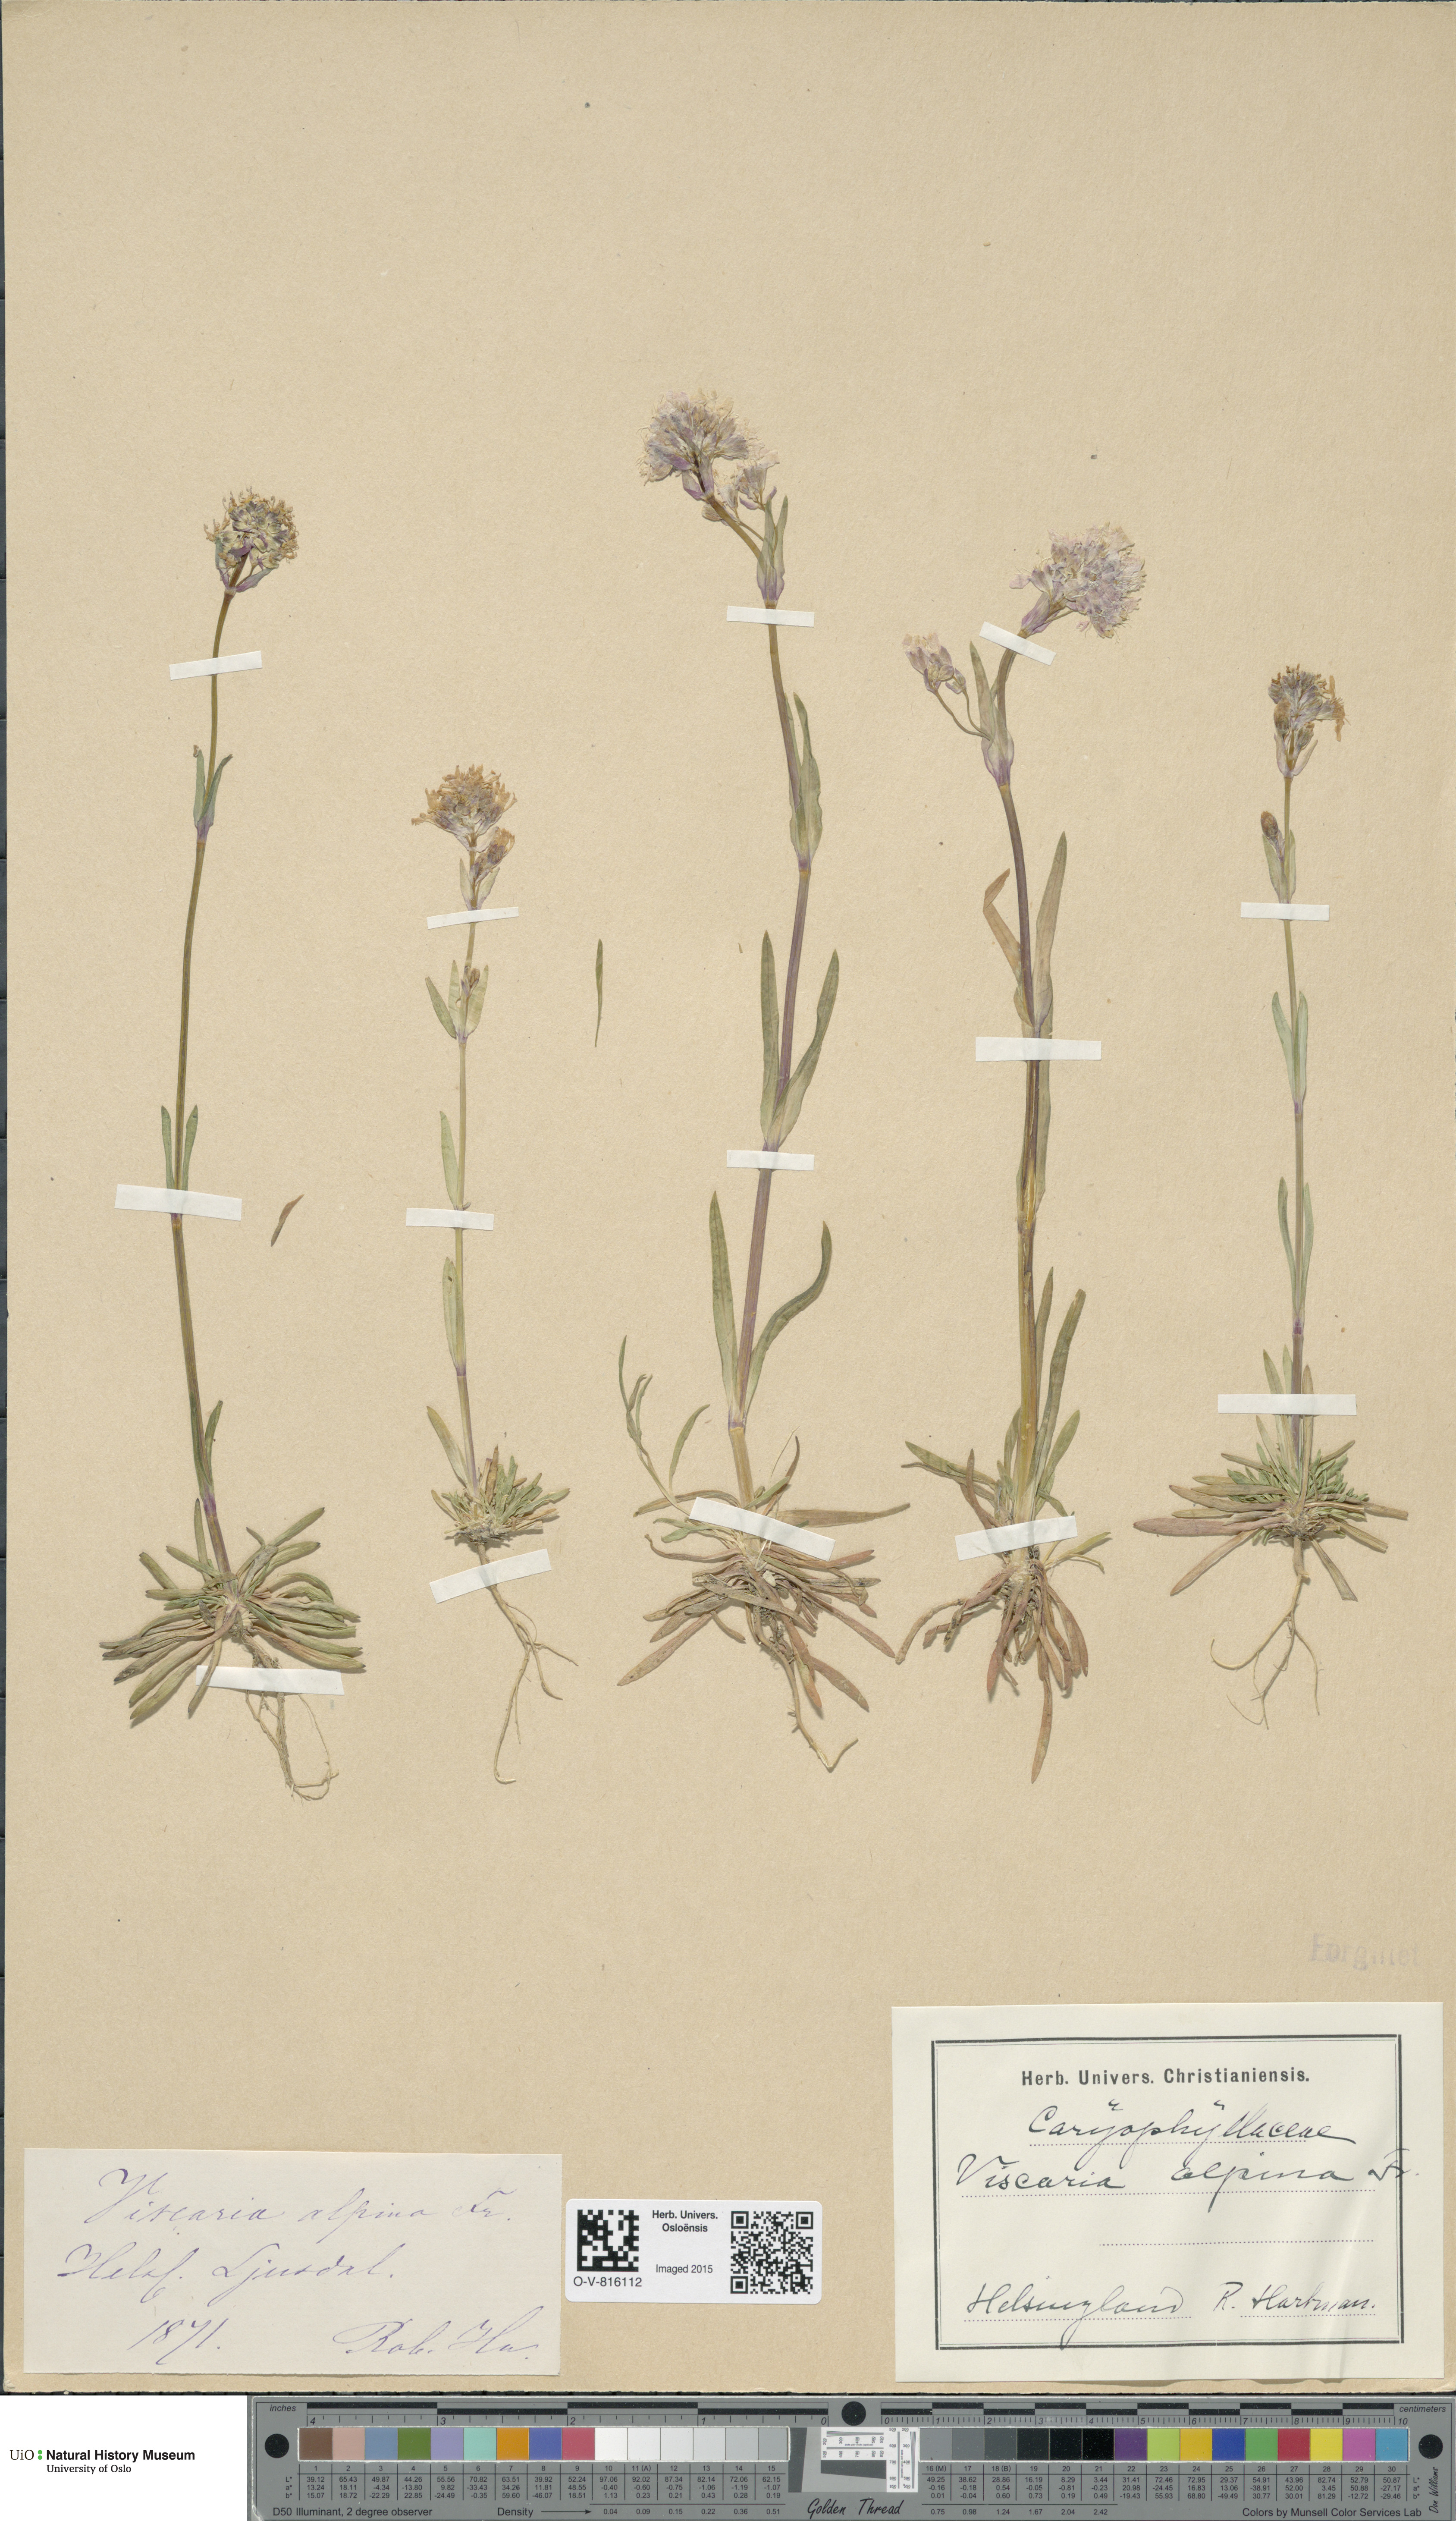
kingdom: Plantae
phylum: Tracheophyta
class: Magnoliopsida
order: Caryophyllales
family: Caryophyllaceae
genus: Viscaria
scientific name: Viscaria alpina
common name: Alpine campion
